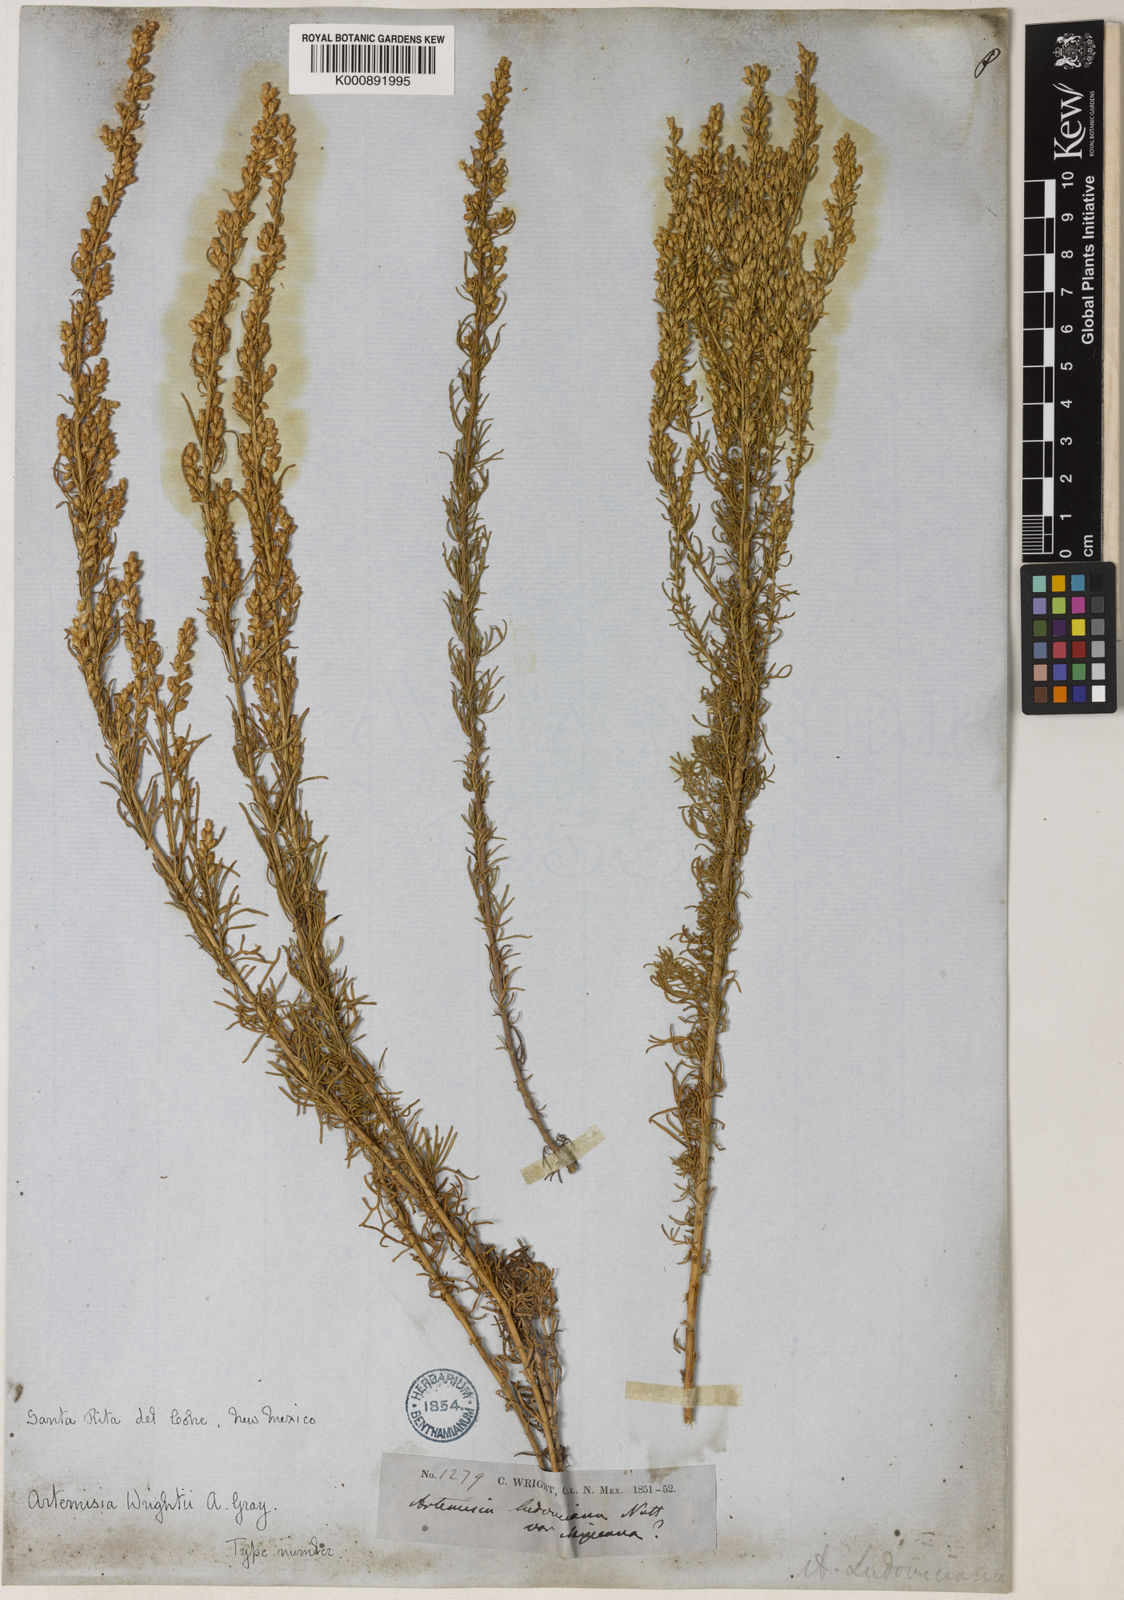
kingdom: Plantae
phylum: Tracheophyta
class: Magnoliopsida
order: Asterales
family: Asteraceae
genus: Artemisia
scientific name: Artemisia carruthii
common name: Carruth wormwood
